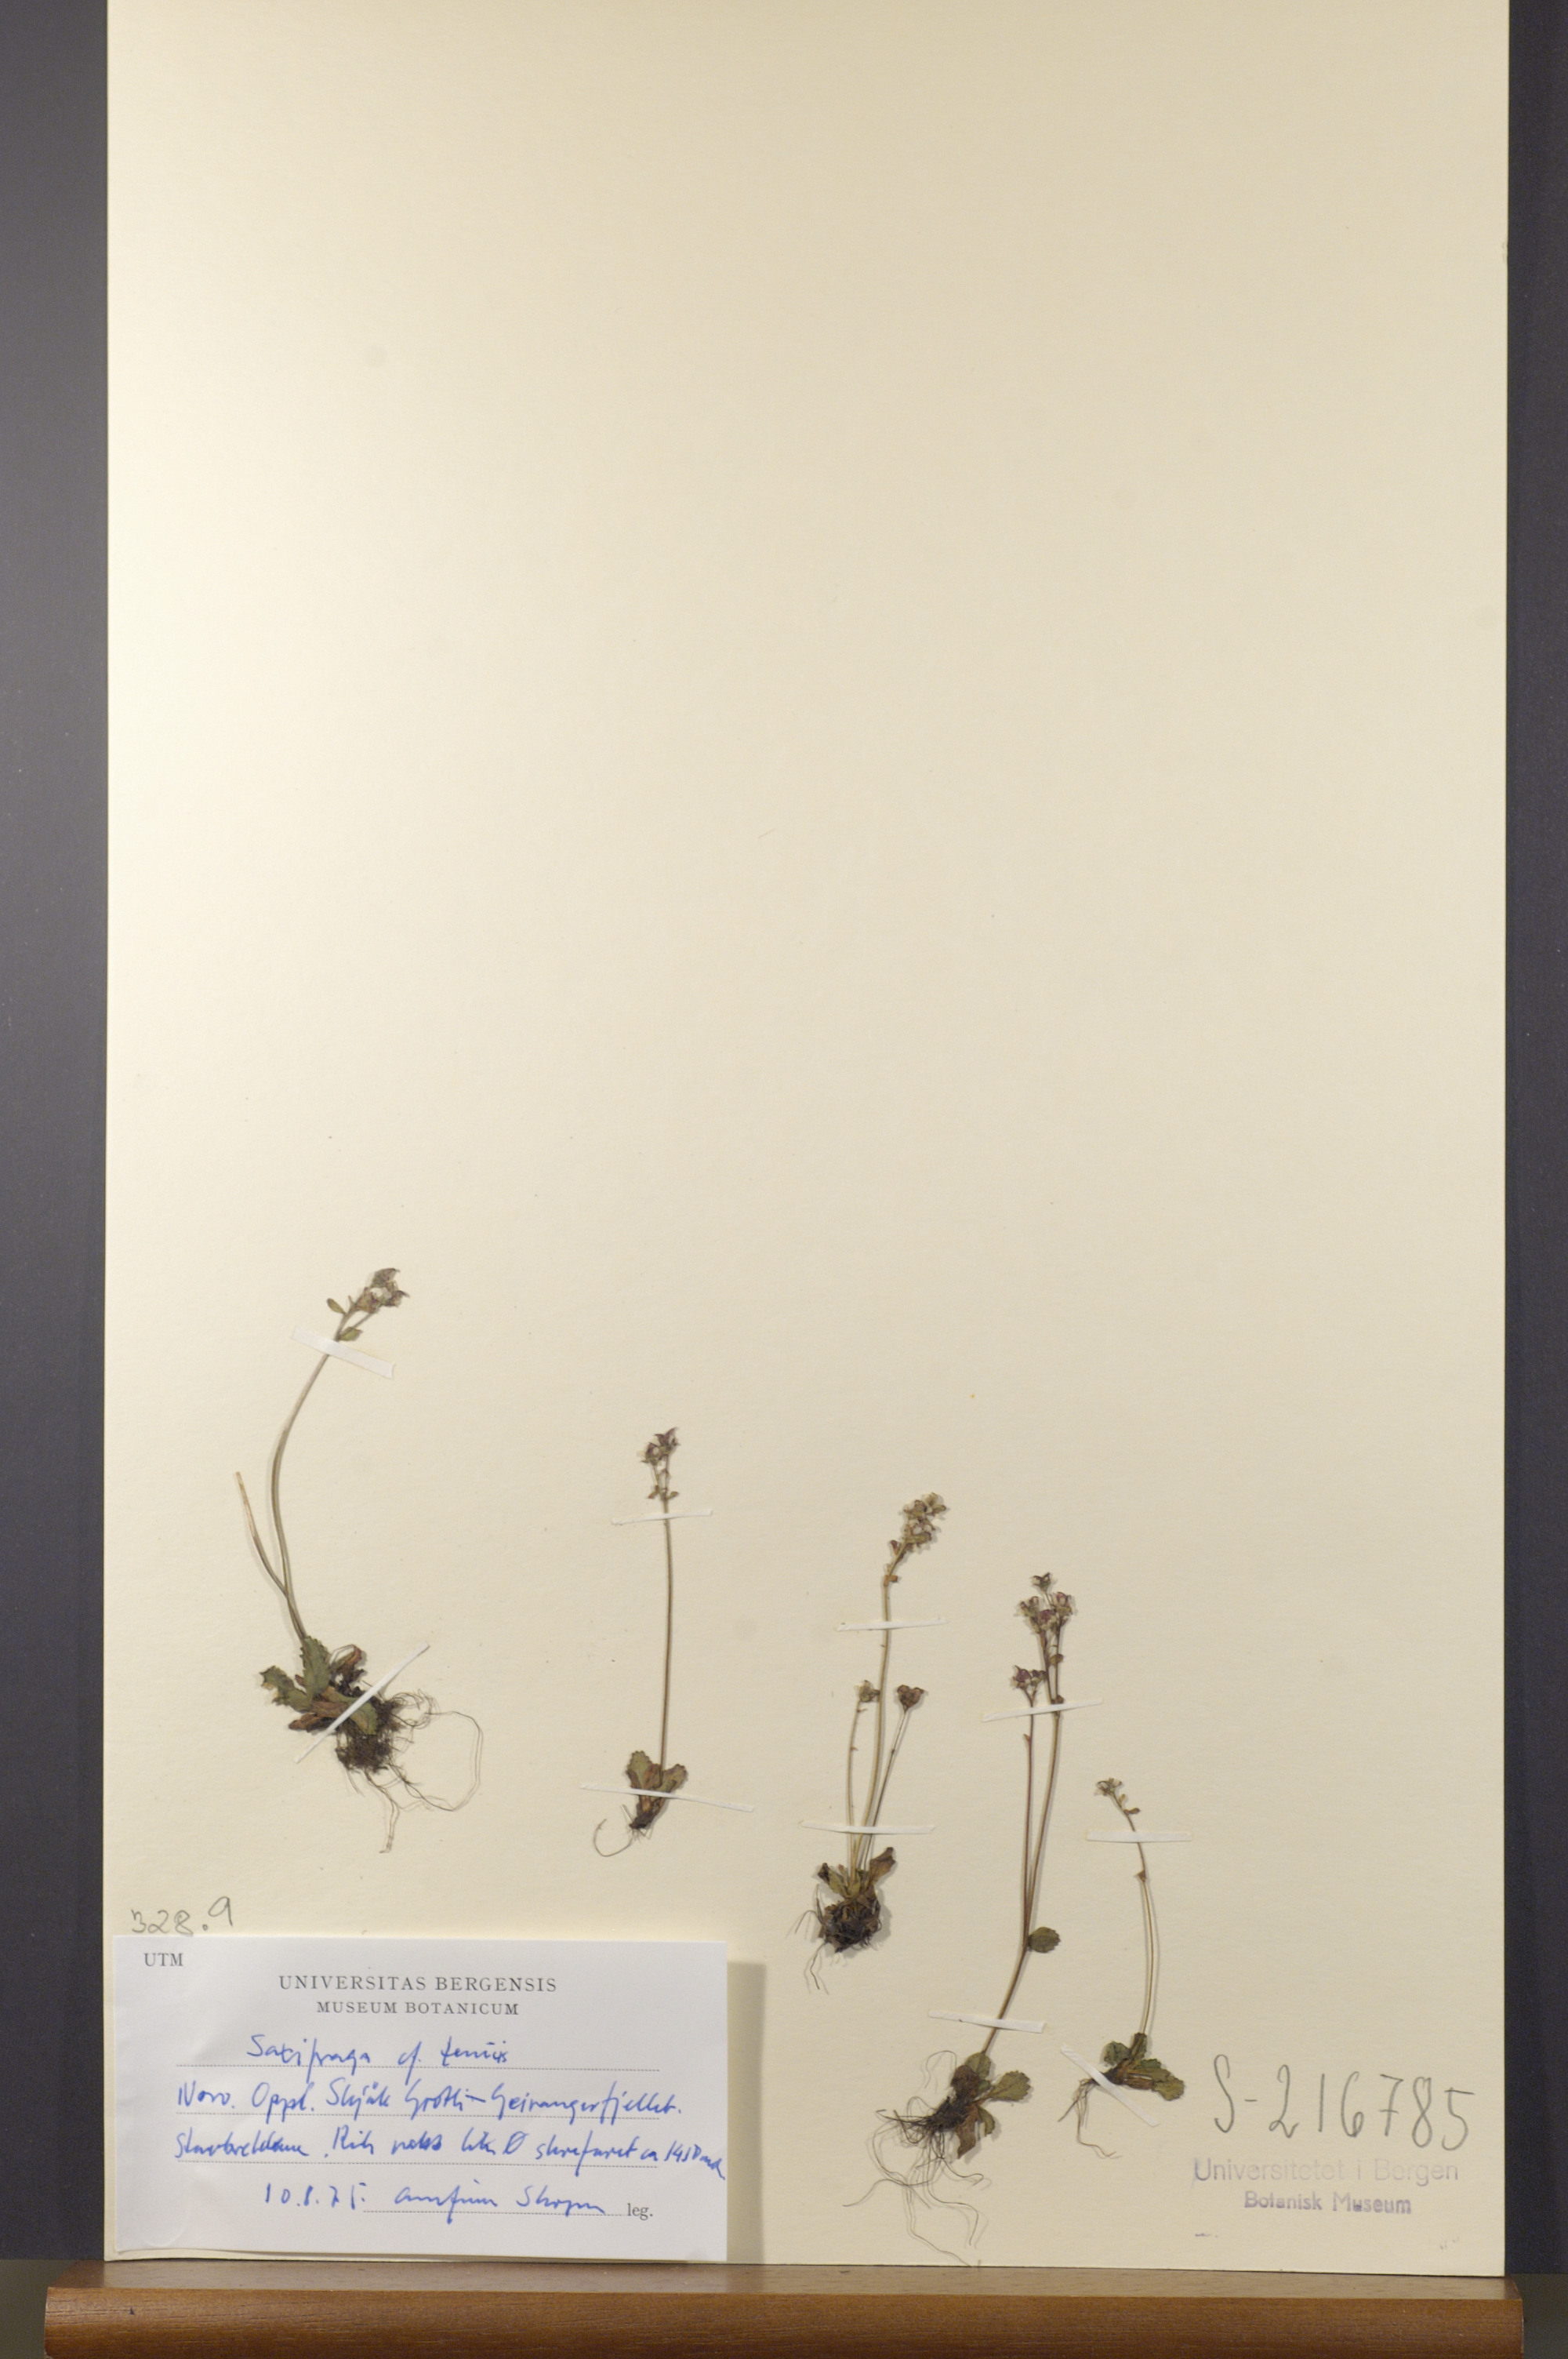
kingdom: Plantae
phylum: Tracheophyta
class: Magnoliopsida
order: Saxifragales
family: Saxifragaceae
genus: Micranthes
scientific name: Micranthes tenuis
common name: Ottertail pass saxifrage
